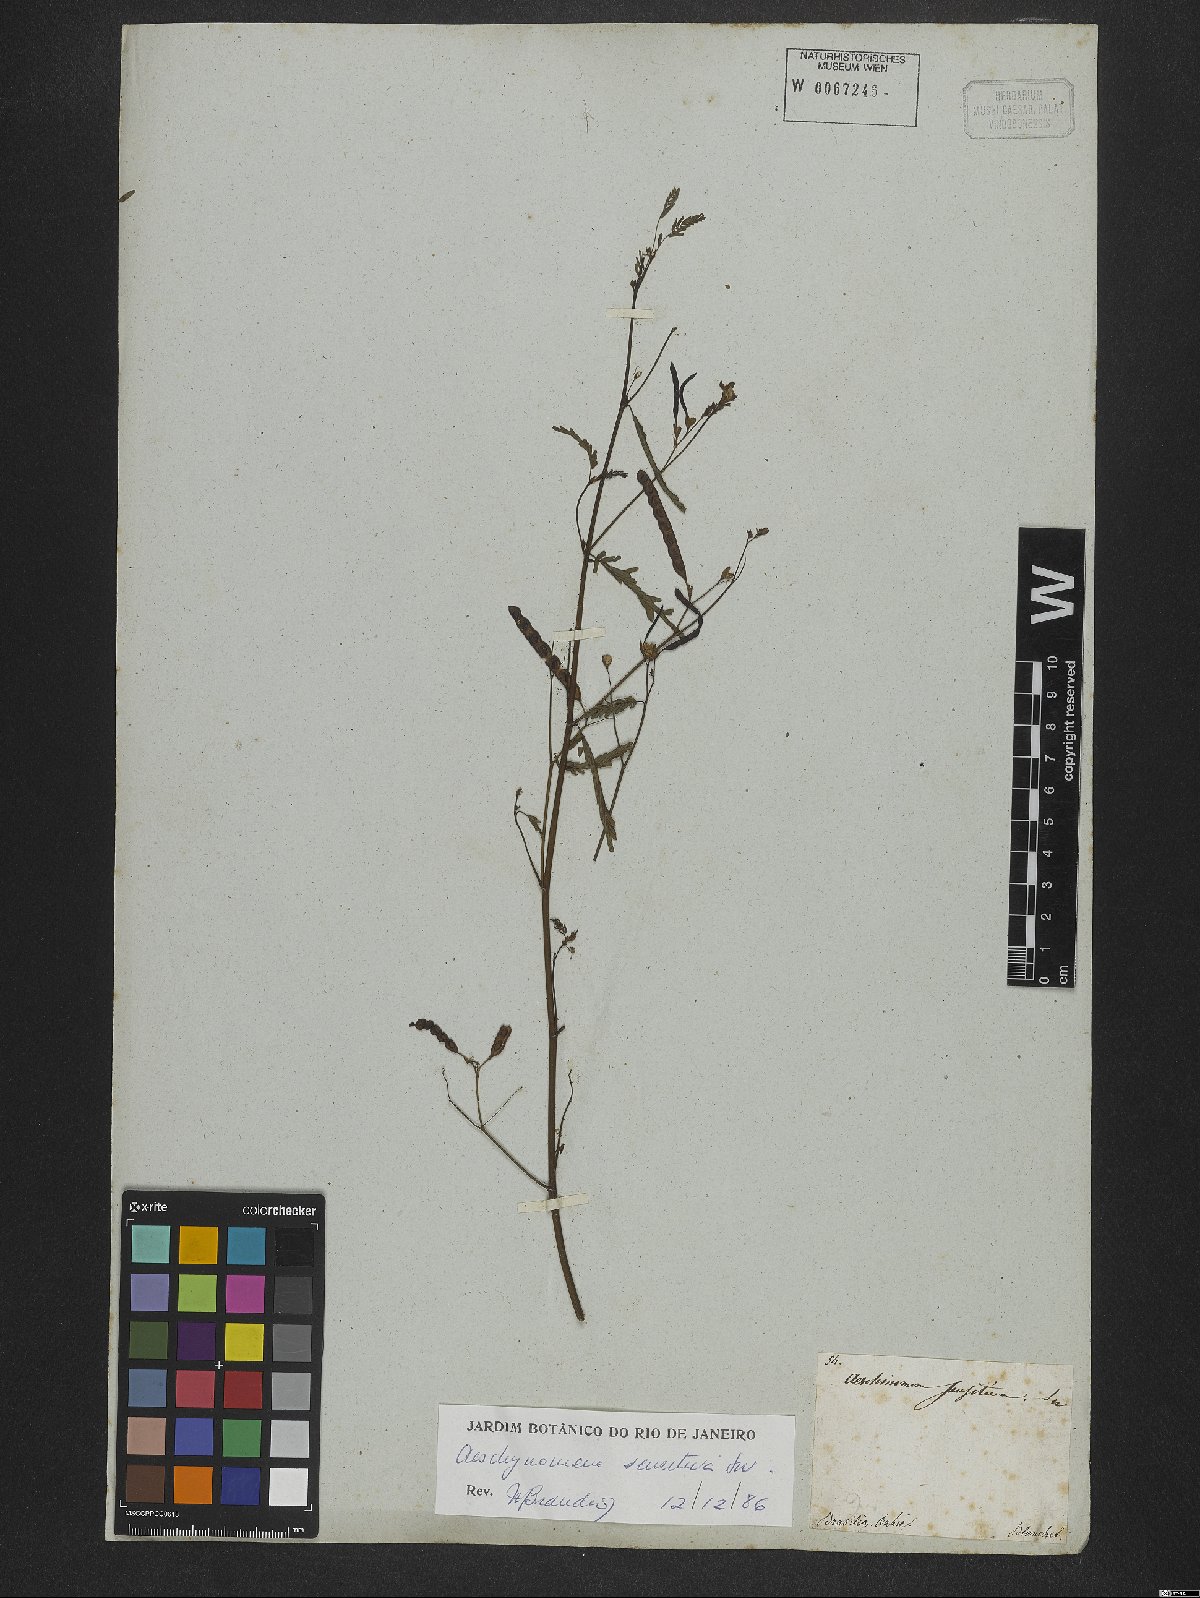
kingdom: Plantae
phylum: Tracheophyta
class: Magnoliopsida
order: Fabales
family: Fabaceae
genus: Aeschynomene
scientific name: Aeschynomene sensitiva
